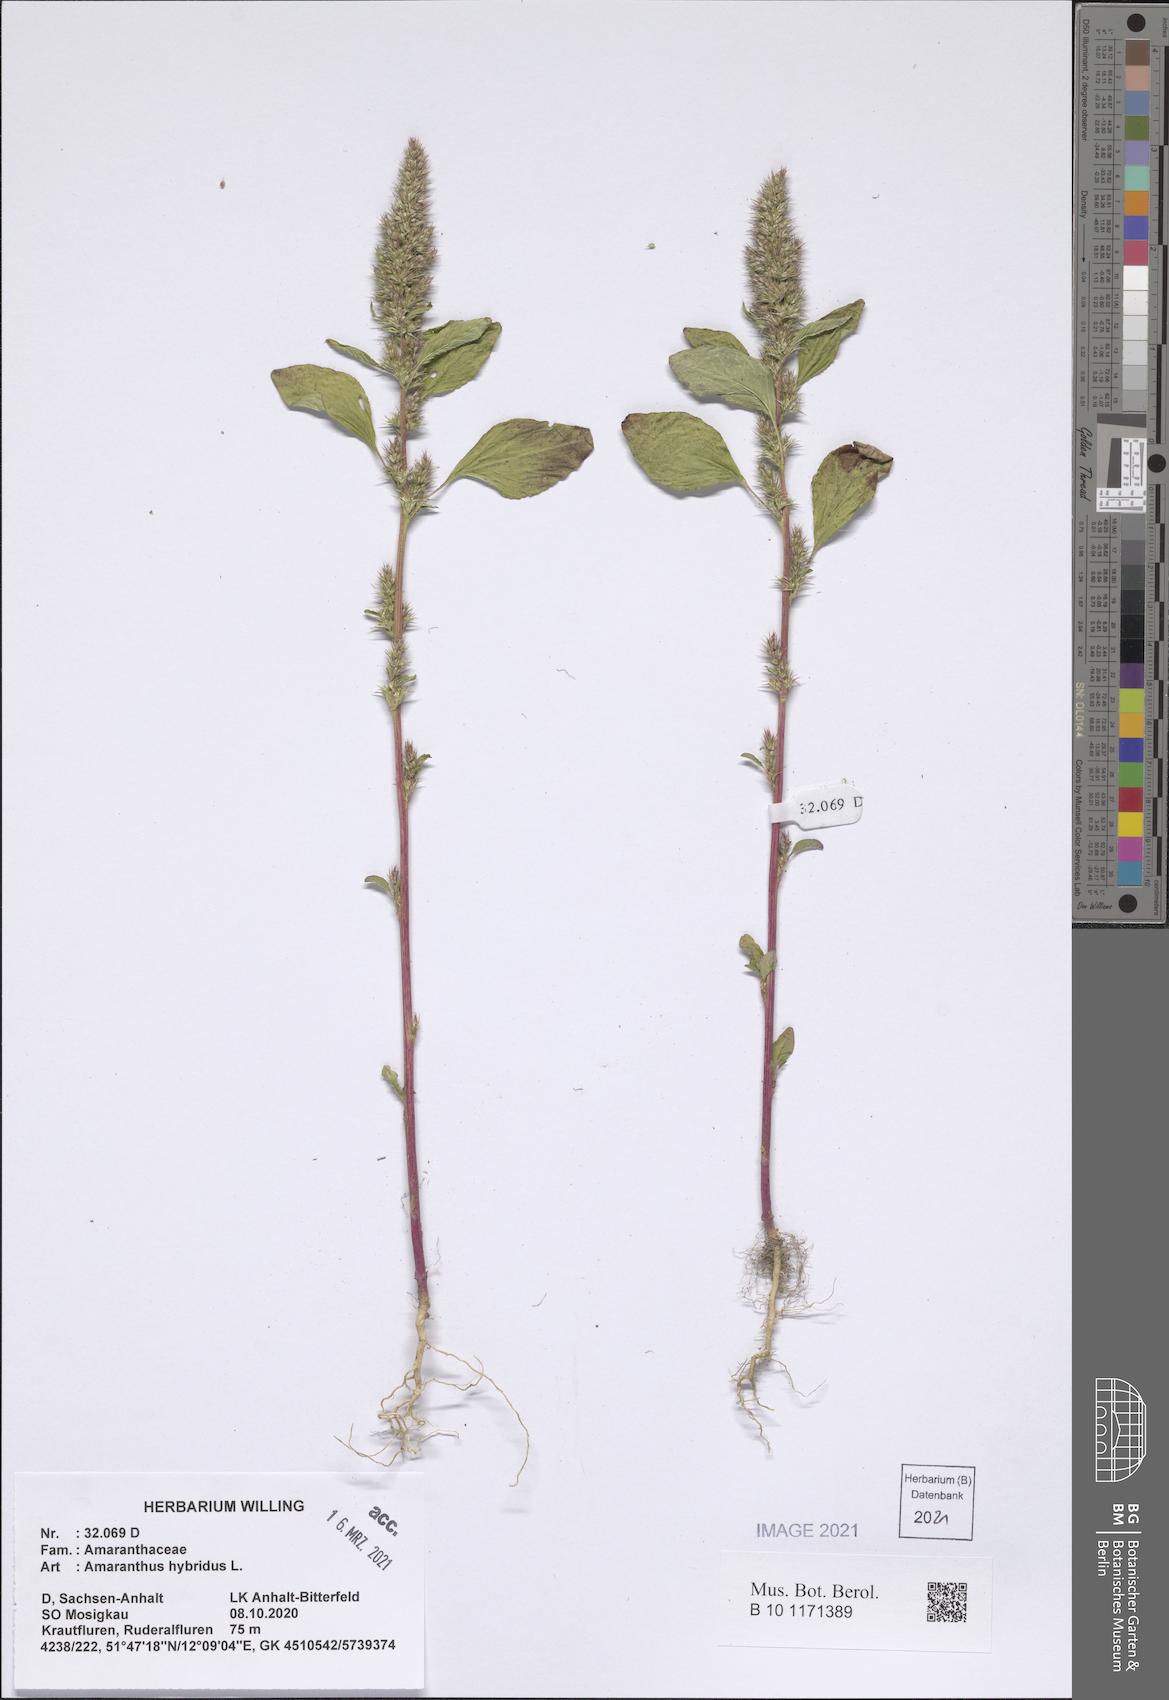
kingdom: Plantae
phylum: Tracheophyta
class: Magnoliopsida
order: Caryophyllales
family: Amaranthaceae
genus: Amaranthus
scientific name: Amaranthus hybridus
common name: Green amaranth
